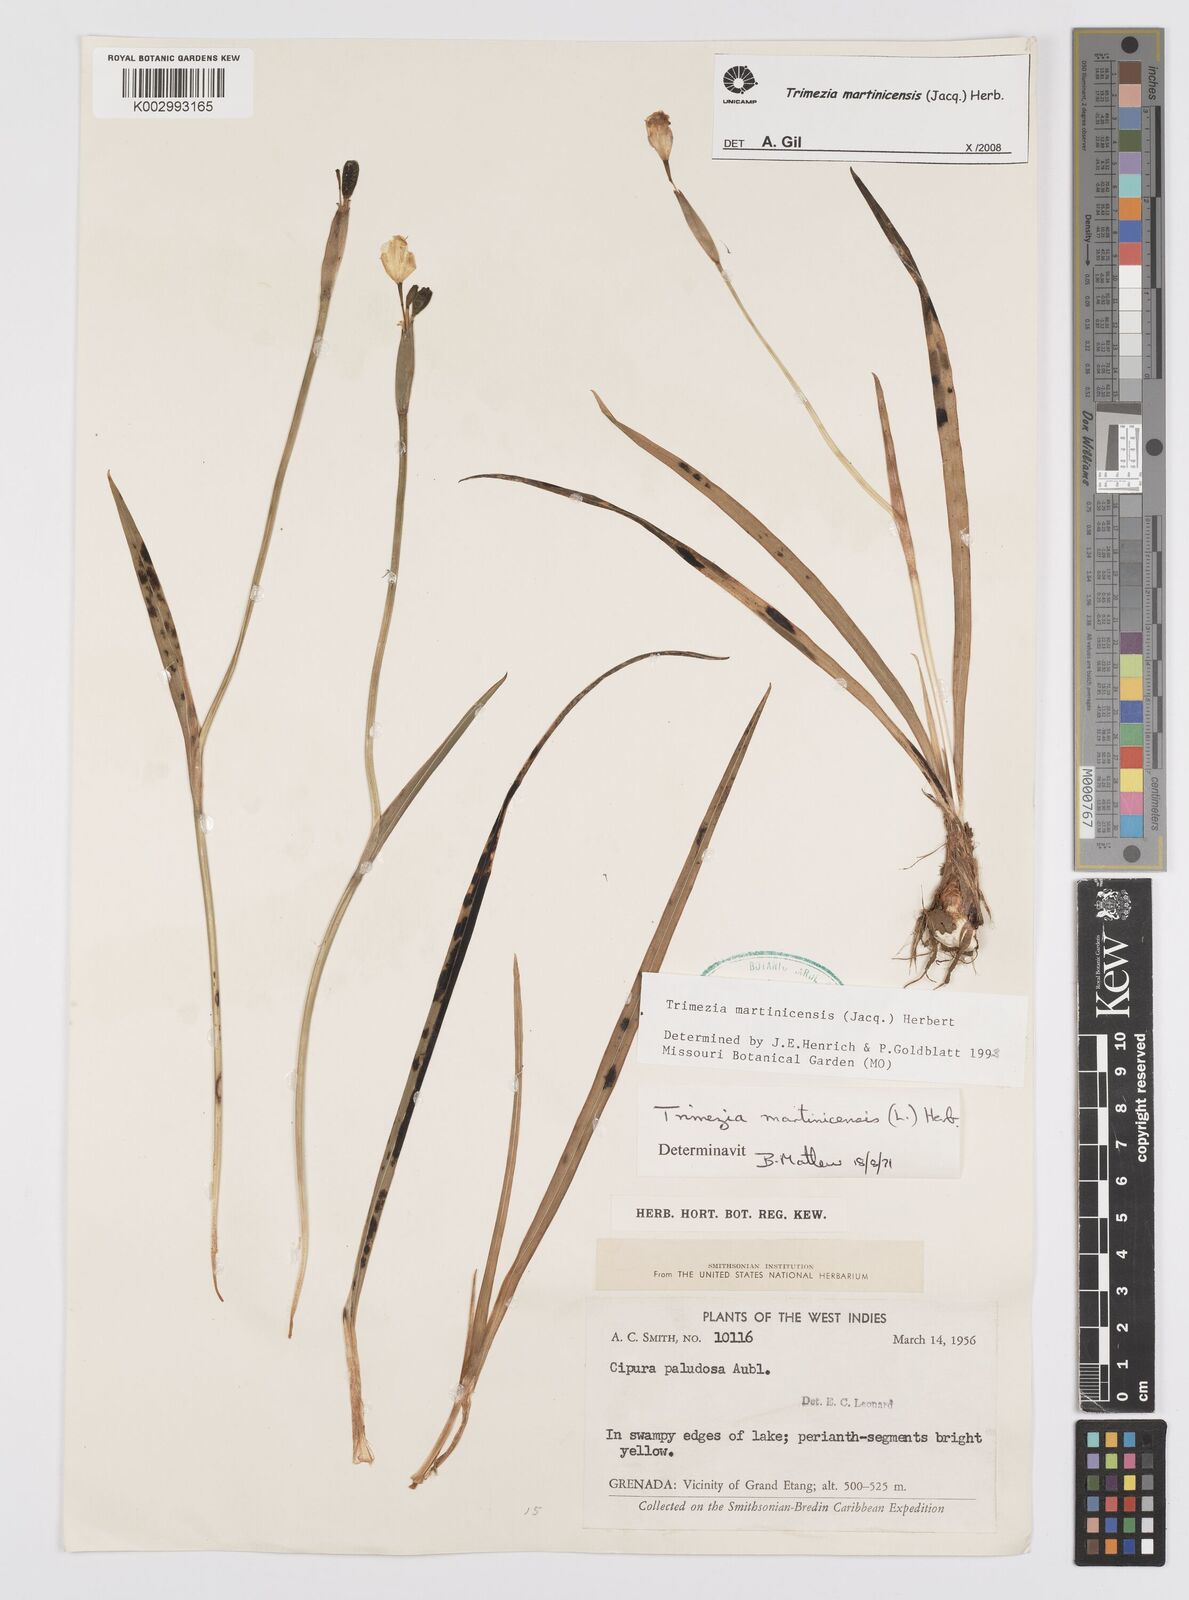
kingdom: Plantae
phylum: Tracheophyta
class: Liliopsida
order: Asparagales
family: Iridaceae
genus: Trimezia
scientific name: Trimezia martinicensis
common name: Martinique trimezia
